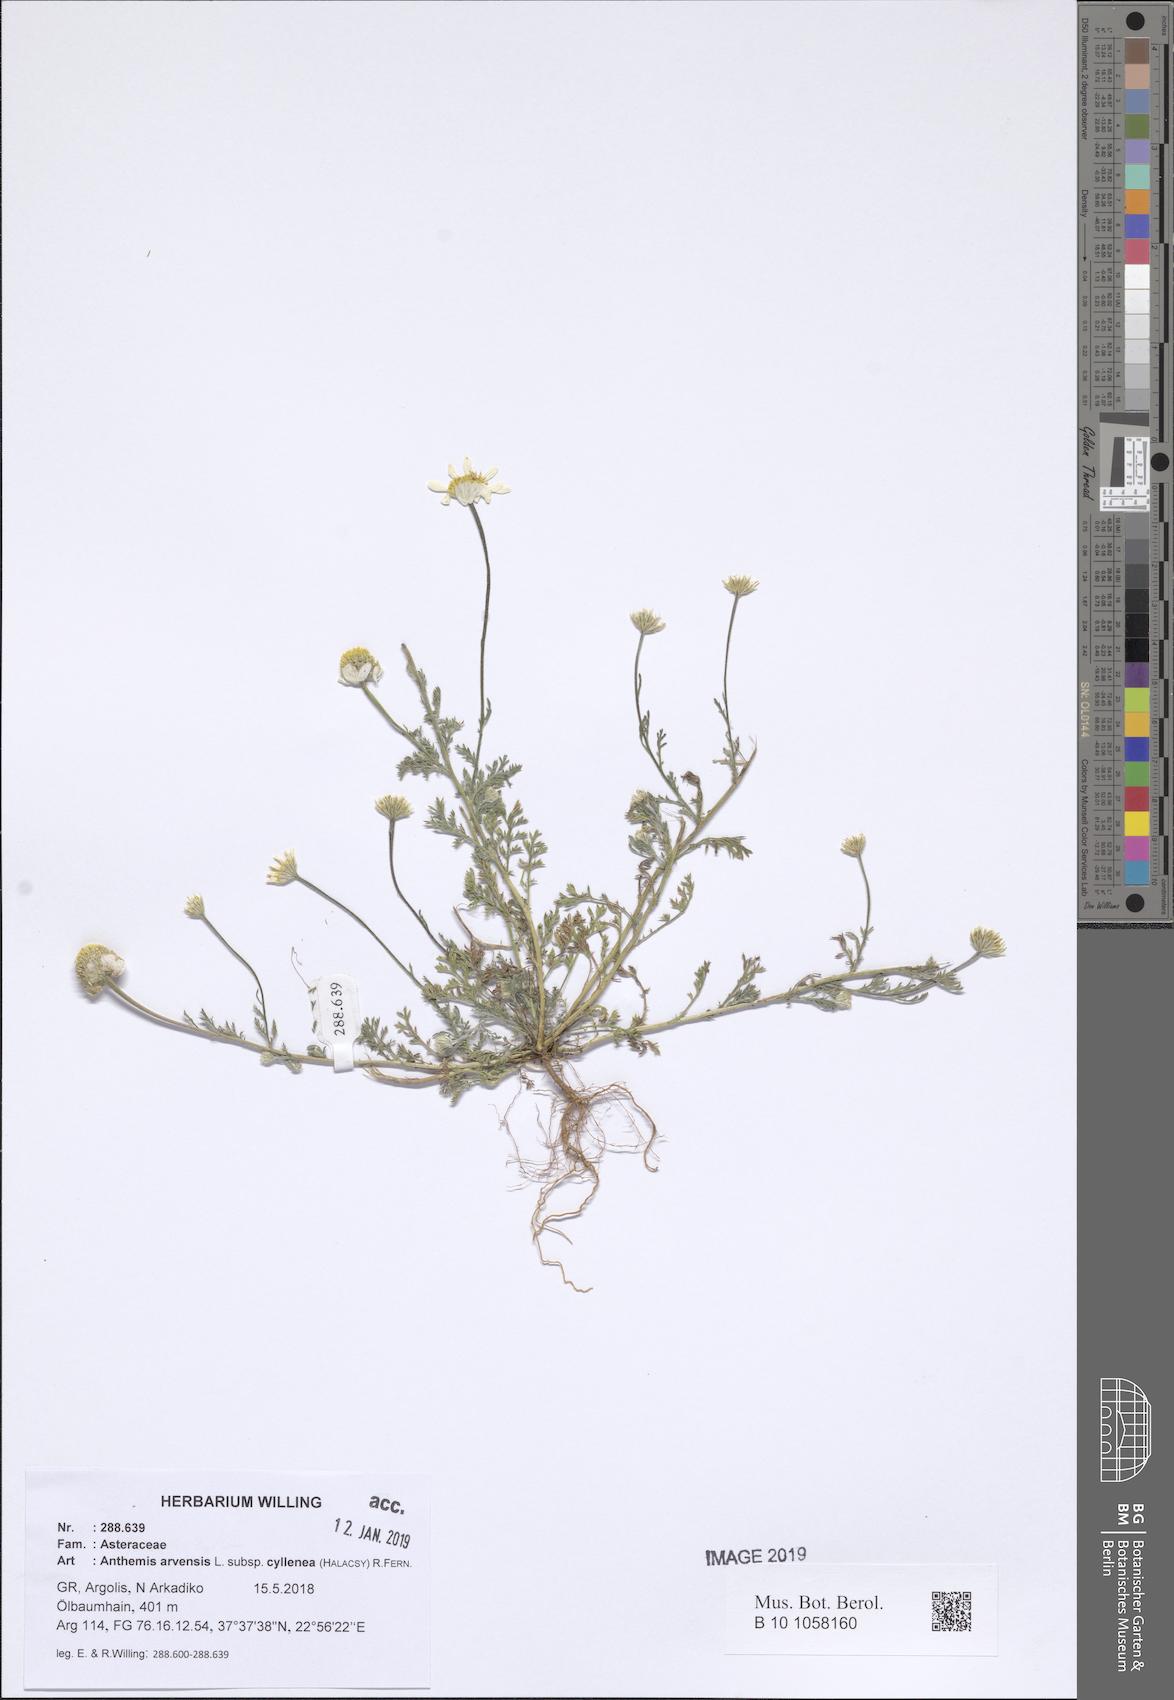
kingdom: Plantae
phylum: Tracheophyta
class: Magnoliopsida
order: Asterales
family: Asteraceae
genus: Anthemis
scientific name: Anthemis arvensis
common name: Corn chamomile
